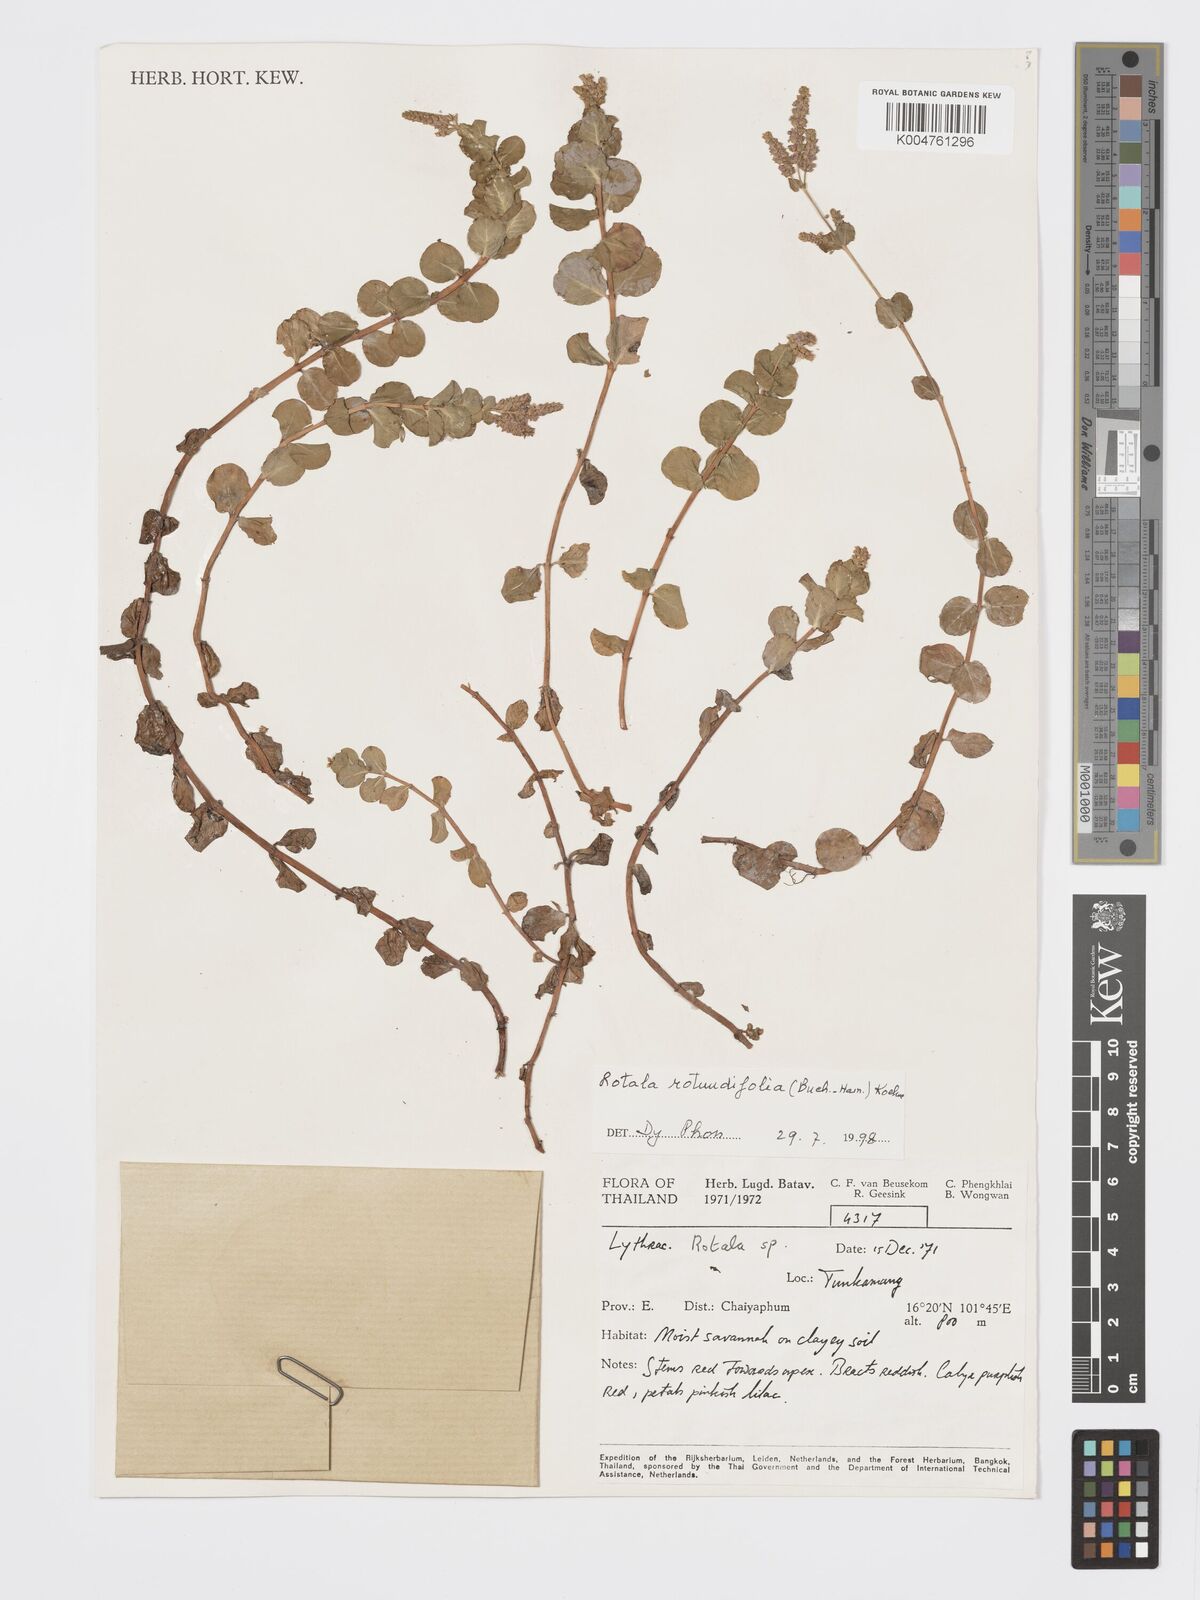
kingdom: Plantae
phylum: Tracheophyta
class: Magnoliopsida
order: Myrtales
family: Lythraceae
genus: Rotala
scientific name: Rotala rotundifolia
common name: Roundleaf toothcup
